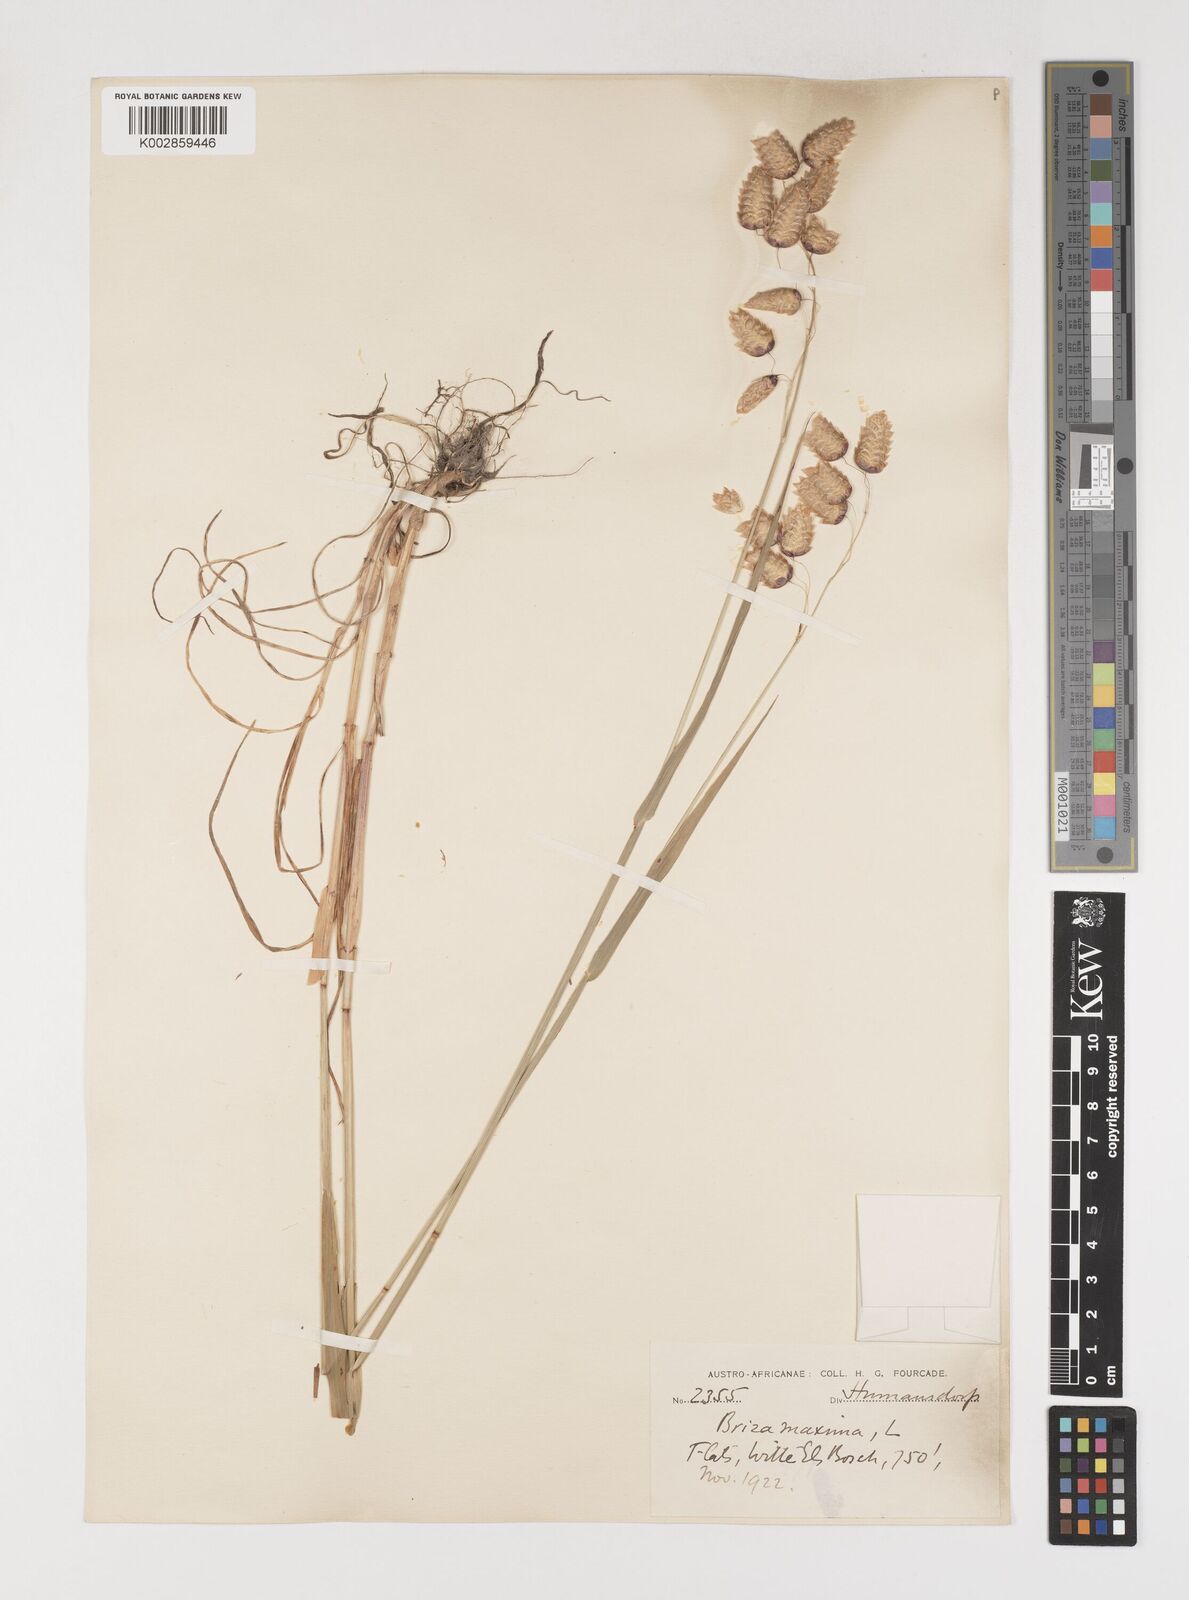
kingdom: Plantae
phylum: Tracheophyta
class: Liliopsida
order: Poales
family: Poaceae
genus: Briza
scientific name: Briza maxima
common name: Big quakinggrass
